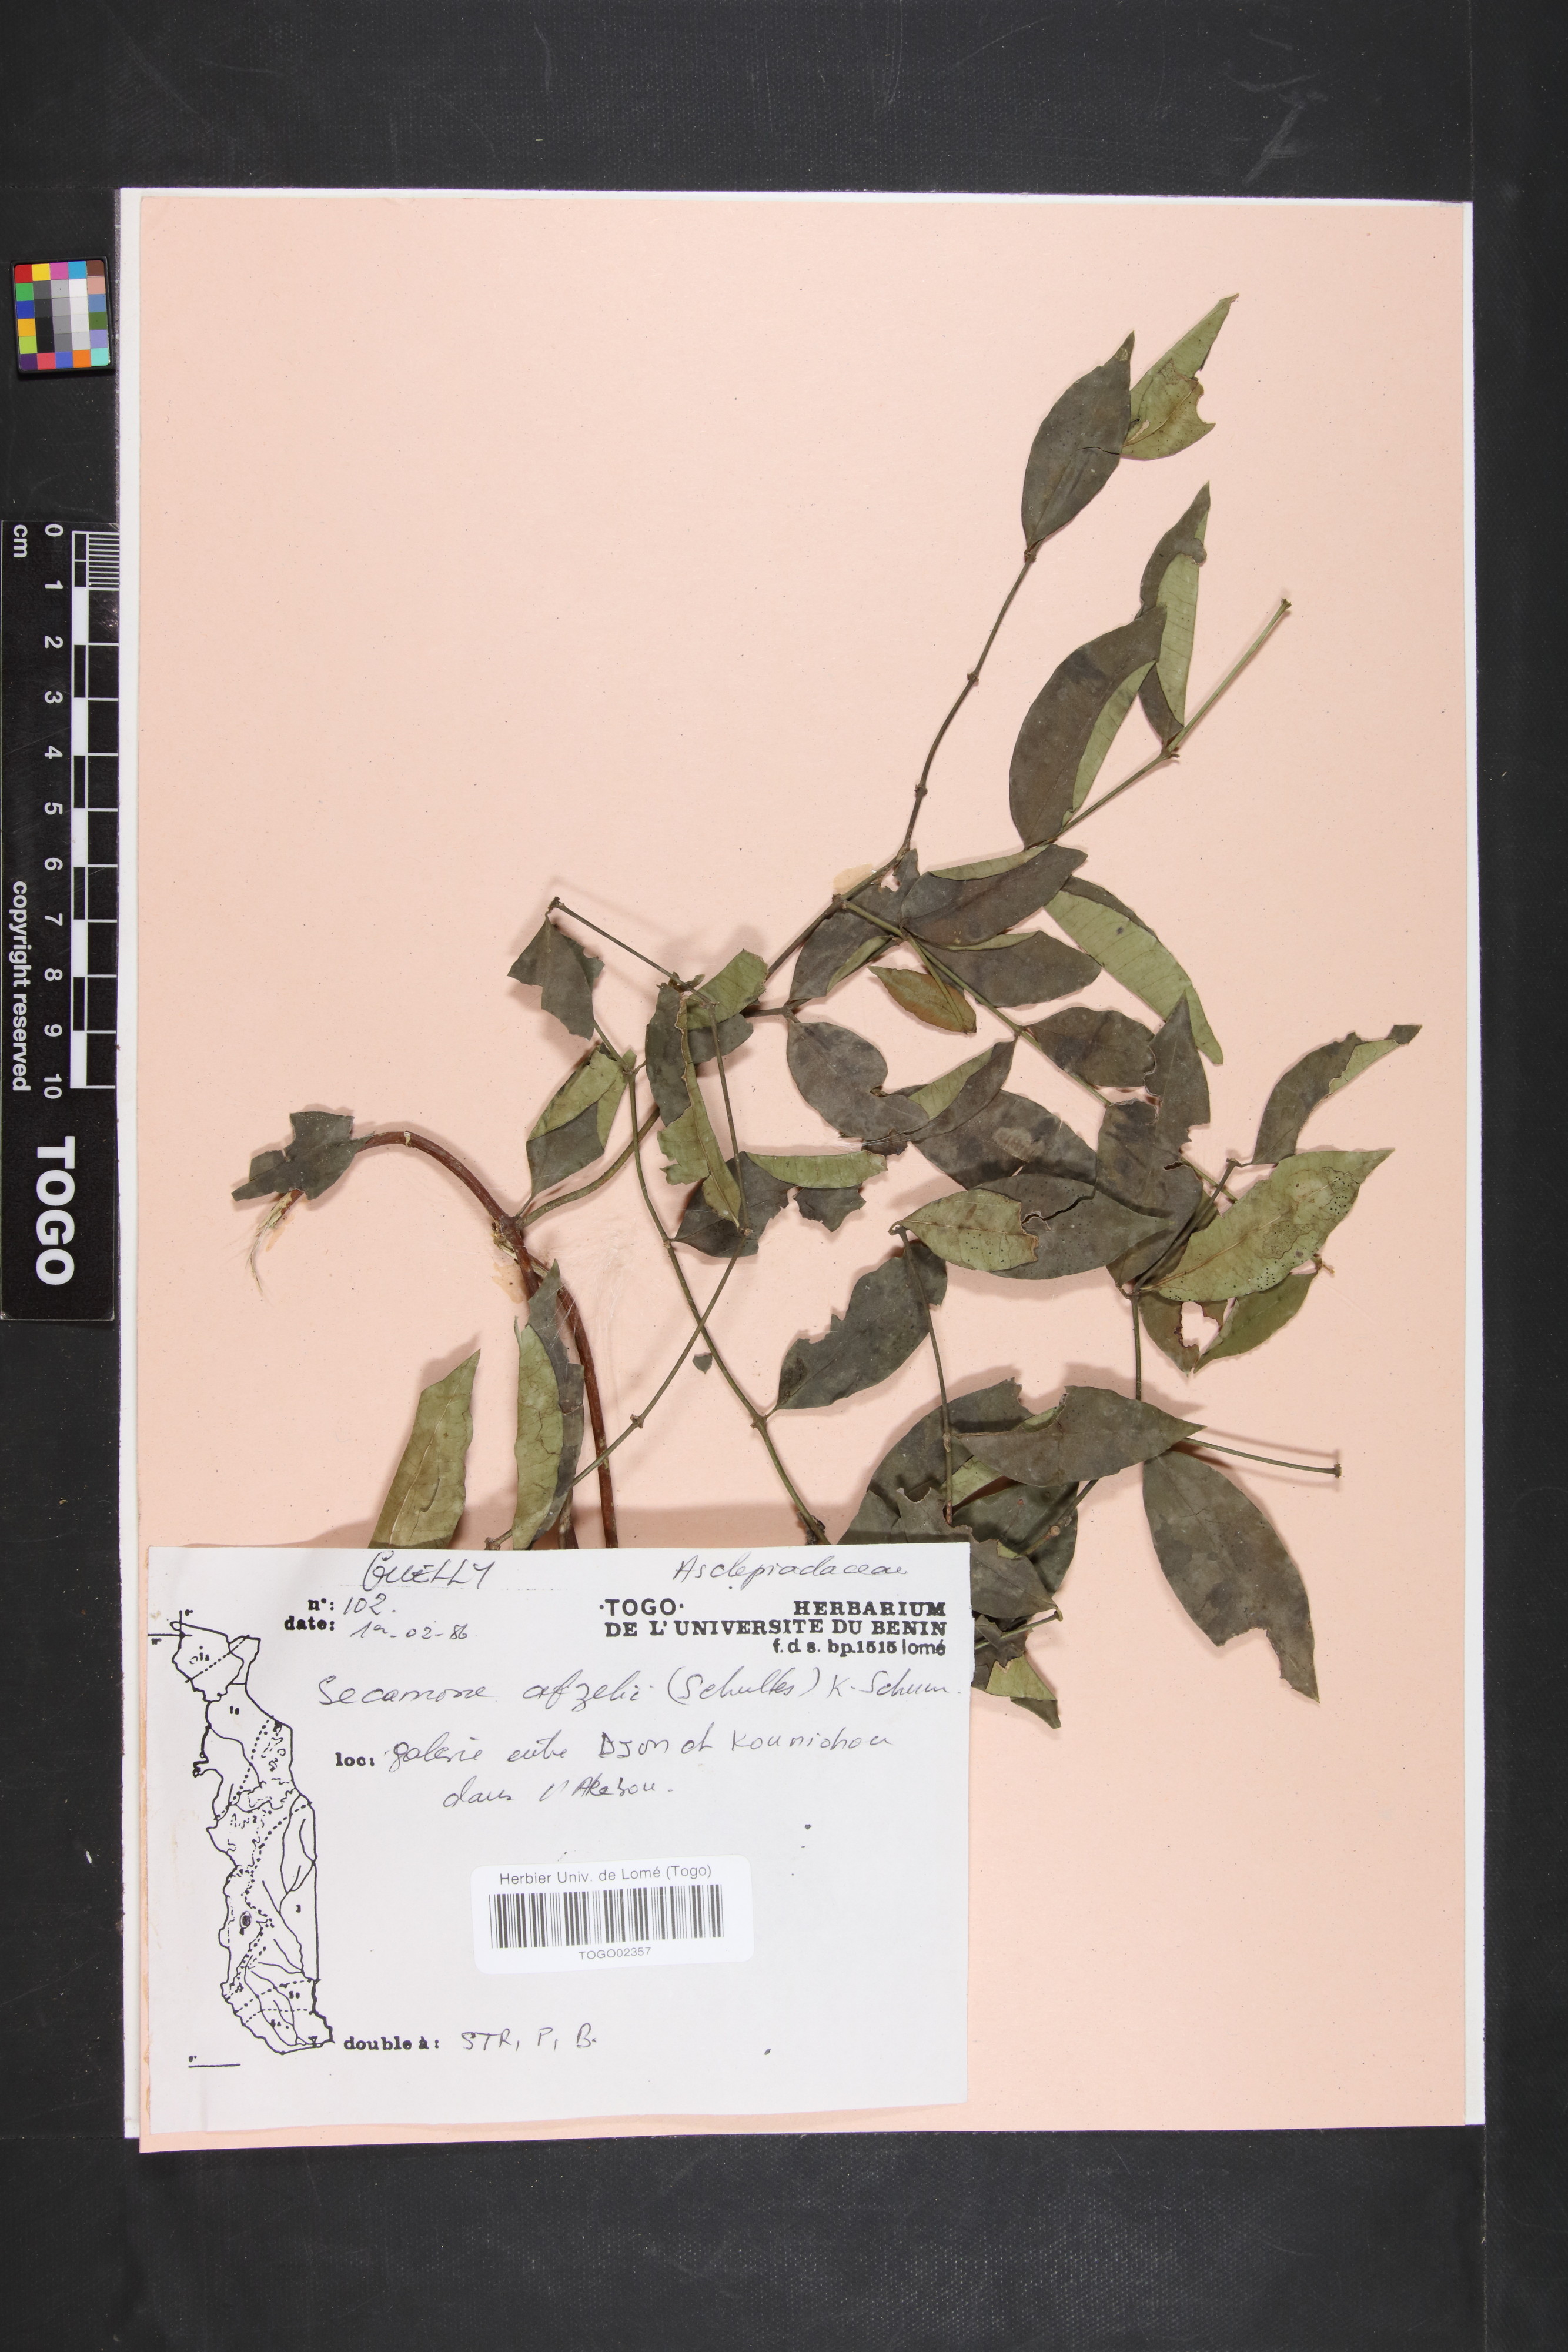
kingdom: Plantae
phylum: Tracheophyta
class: Magnoliopsida
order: Gentianales
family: Apocynaceae
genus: Secamone
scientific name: Secamone afzelii
